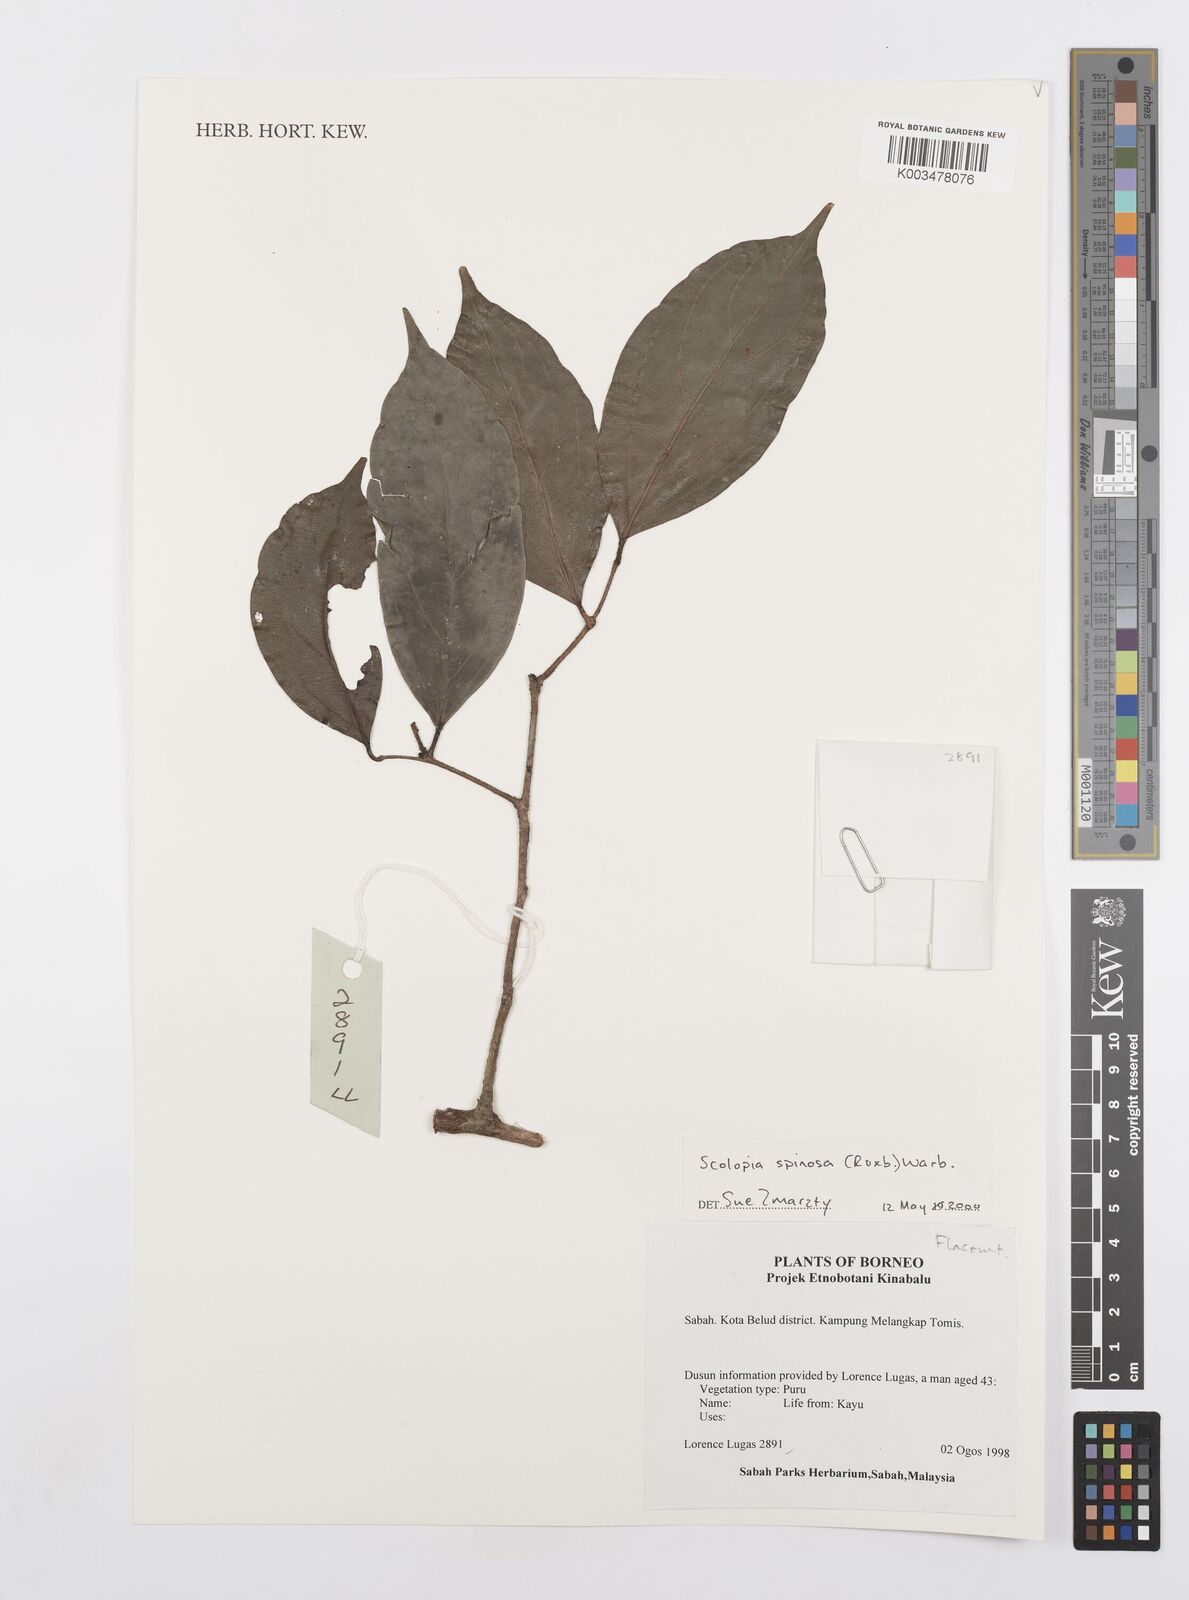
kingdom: Plantae
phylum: Tracheophyta
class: Magnoliopsida
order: Malpighiales
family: Salicaceae
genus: Scolopia
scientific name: Scolopia spinosa
